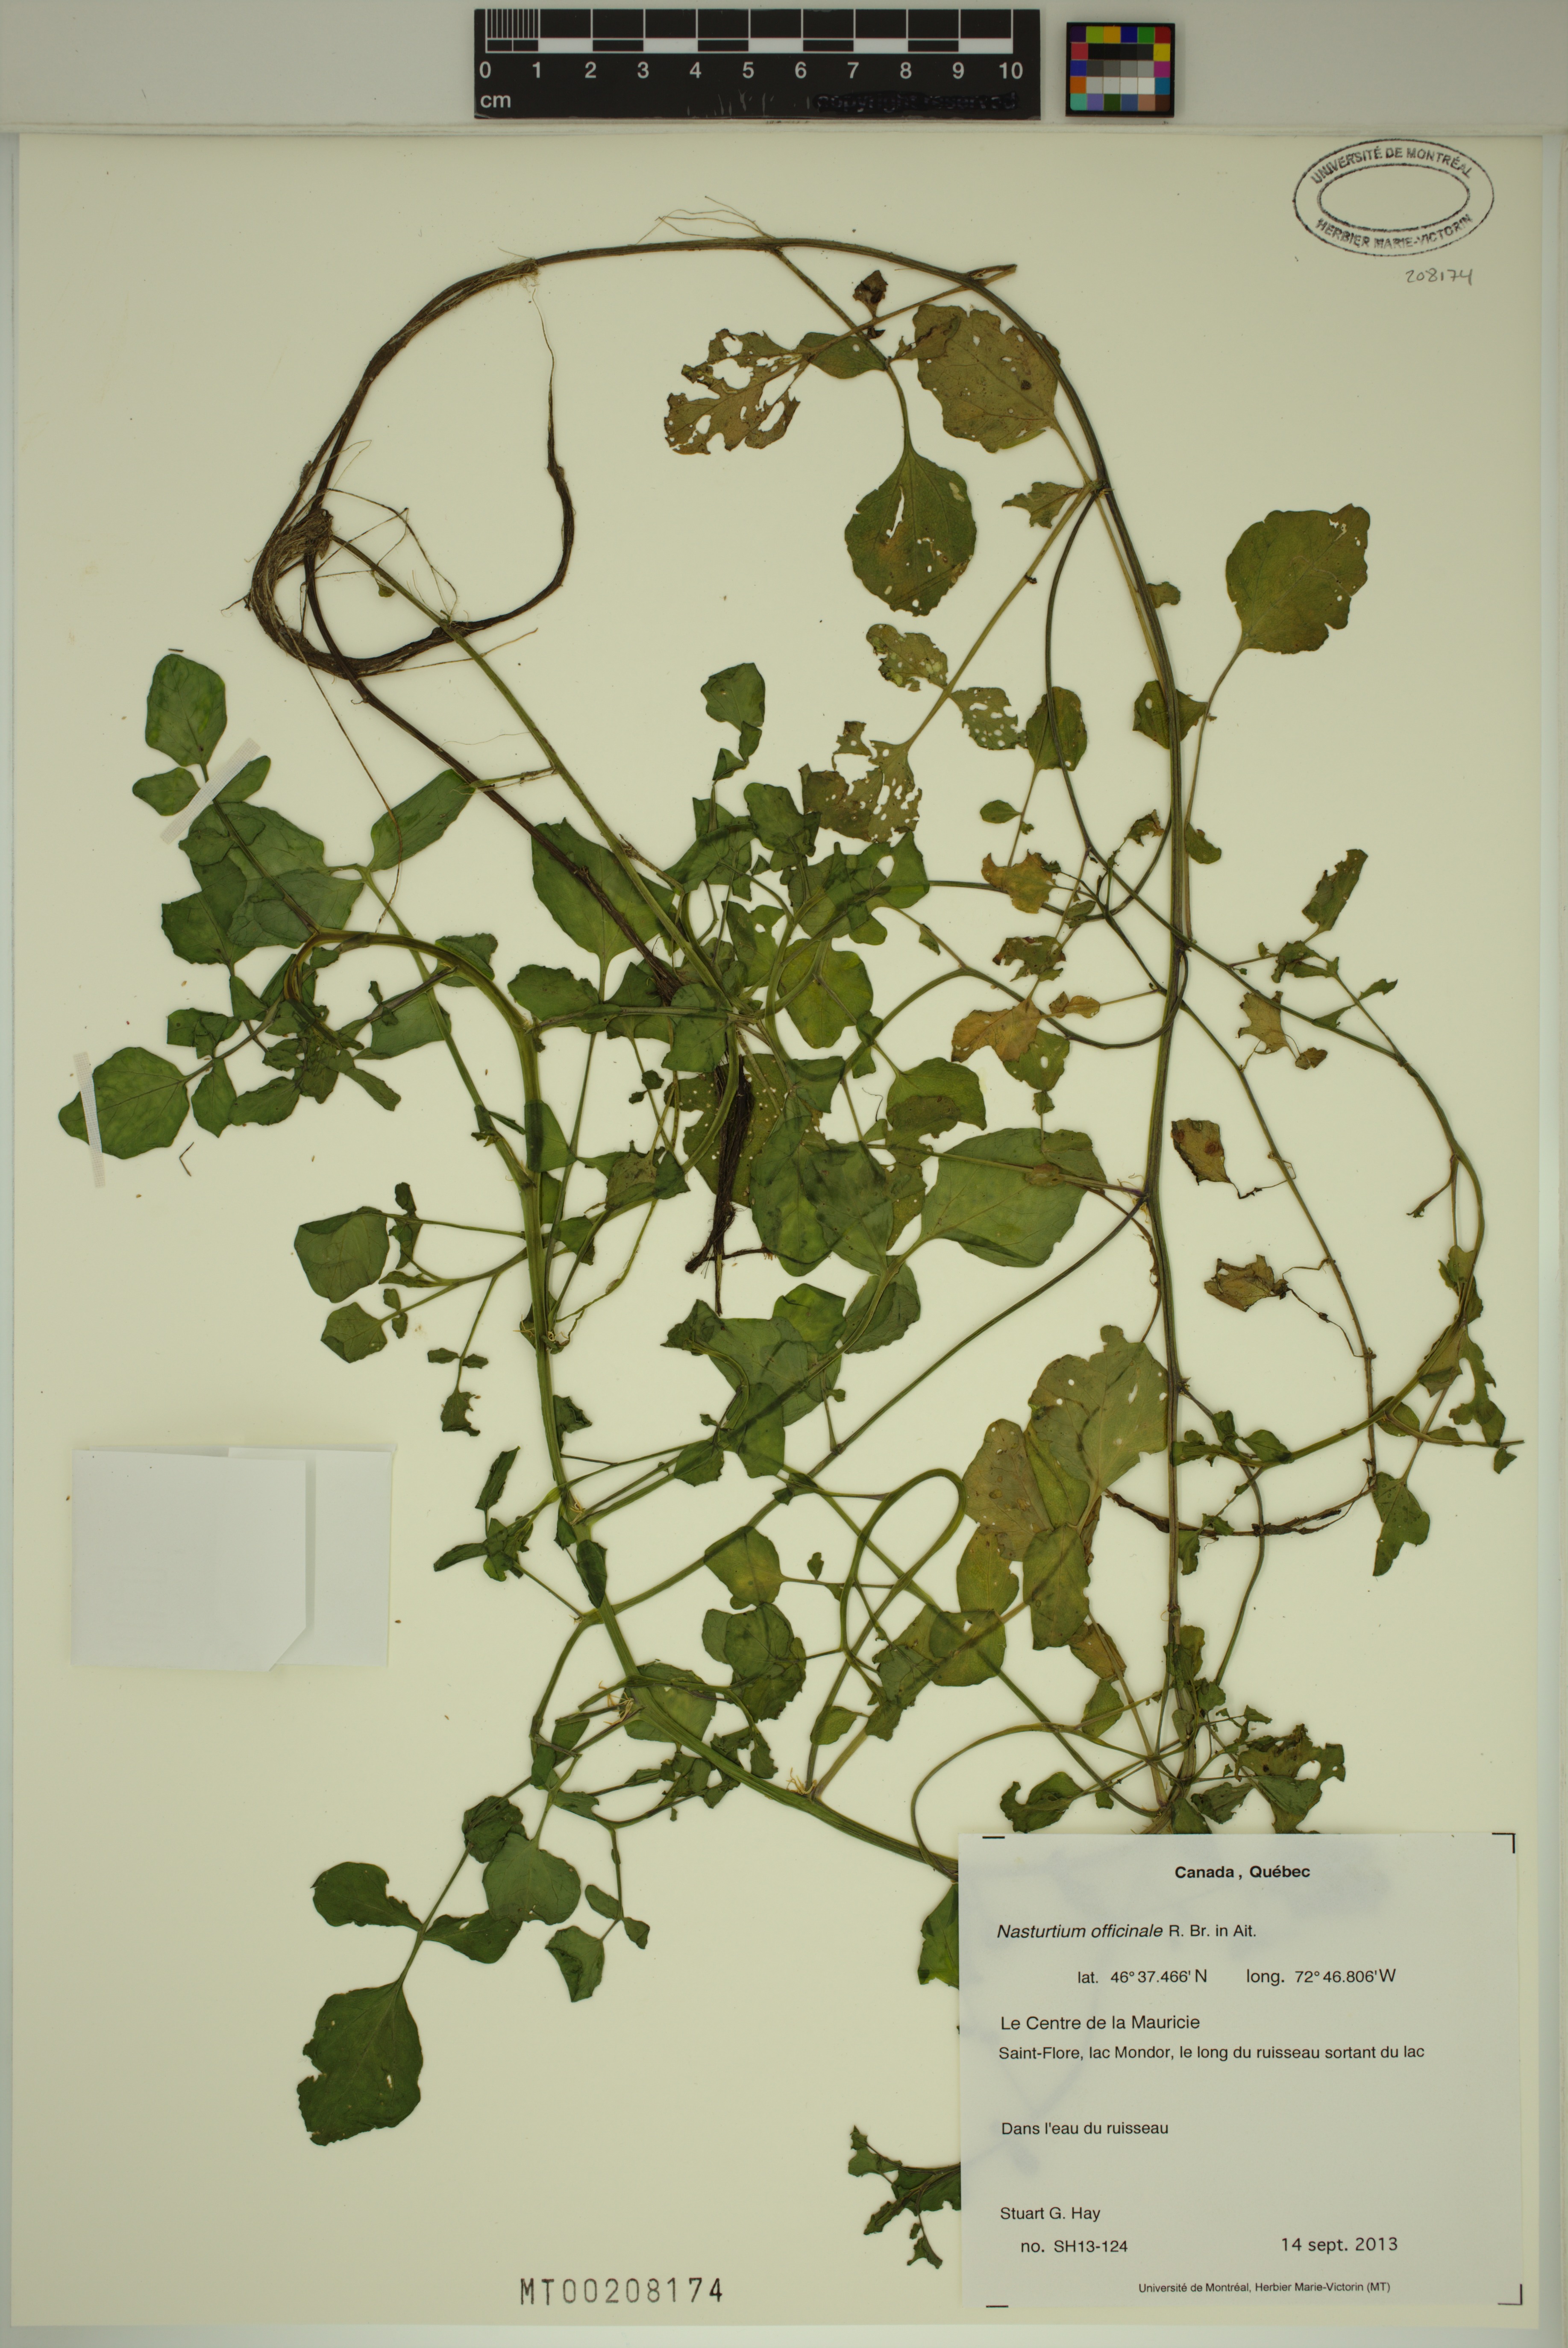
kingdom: Plantae
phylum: Tracheophyta
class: Magnoliopsida
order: Brassicales
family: Brassicaceae
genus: Nasturtium
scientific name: Nasturtium officinale
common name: Watercress
